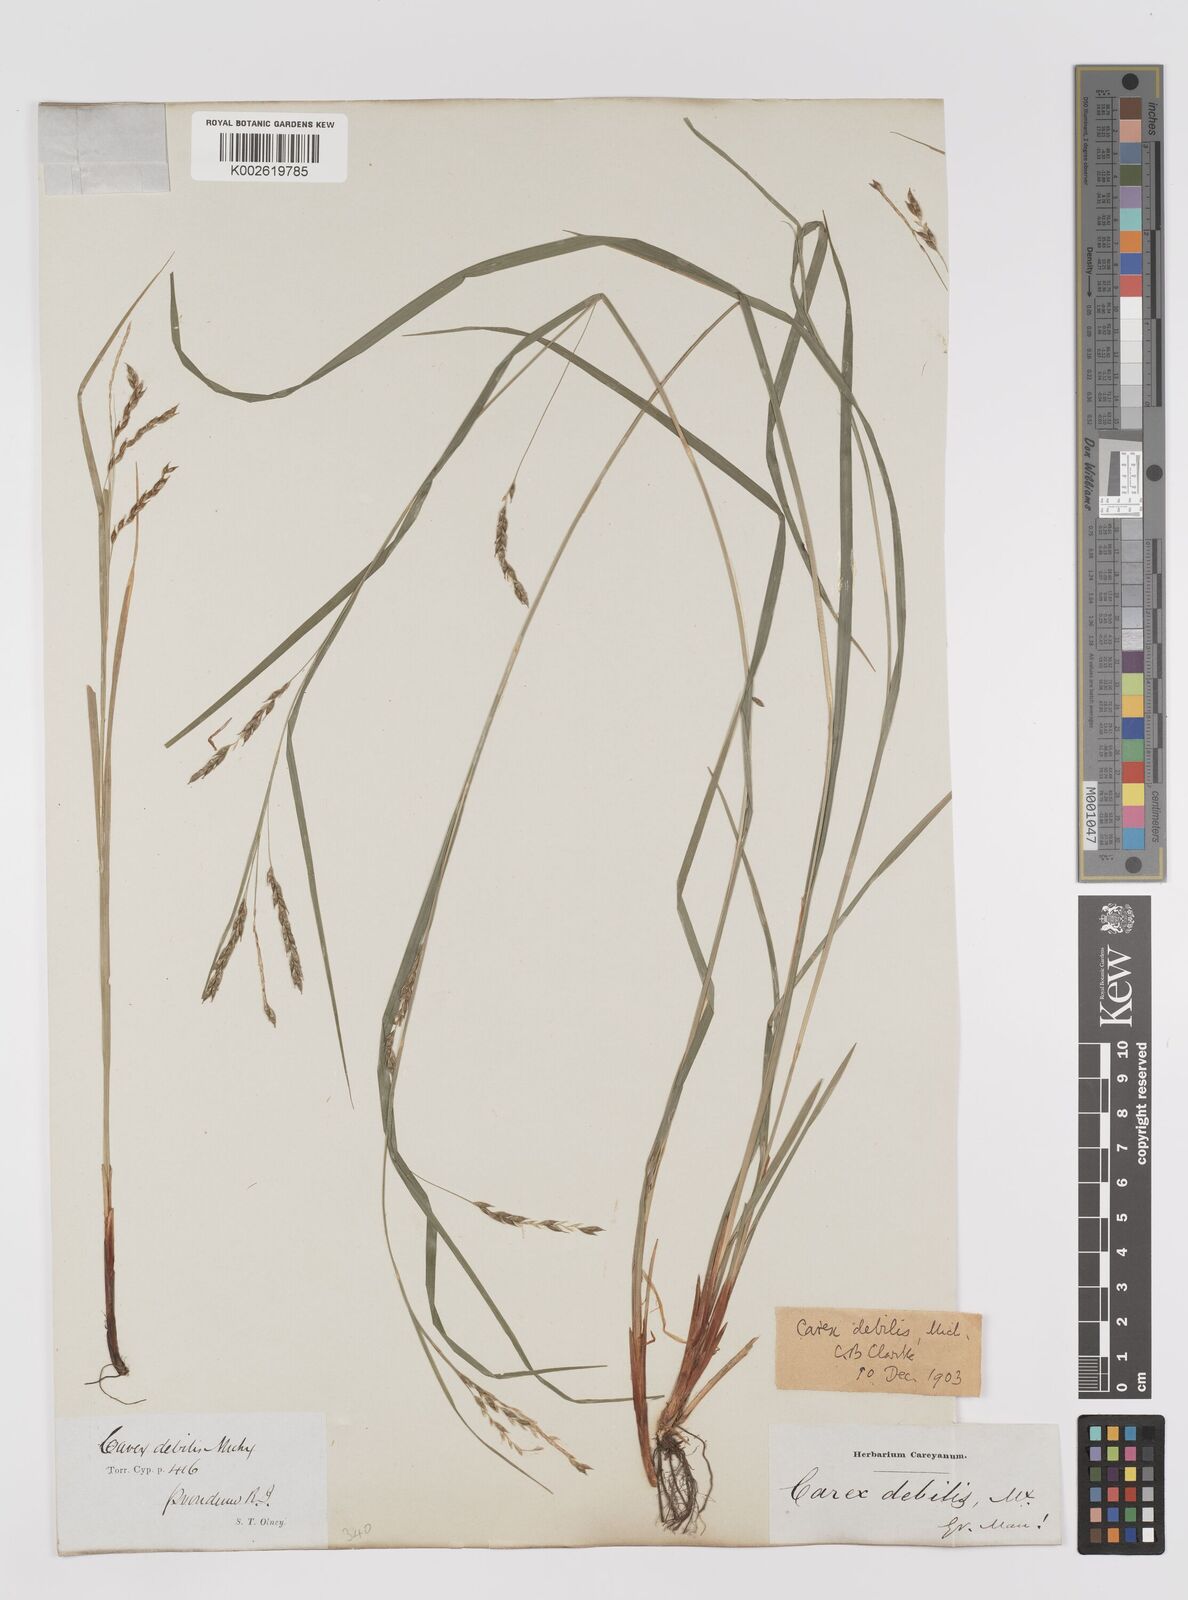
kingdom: Plantae
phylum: Tracheophyta
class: Liliopsida
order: Poales
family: Cyperaceae
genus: Carex
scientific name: Carex debilis
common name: White-edge sedge
